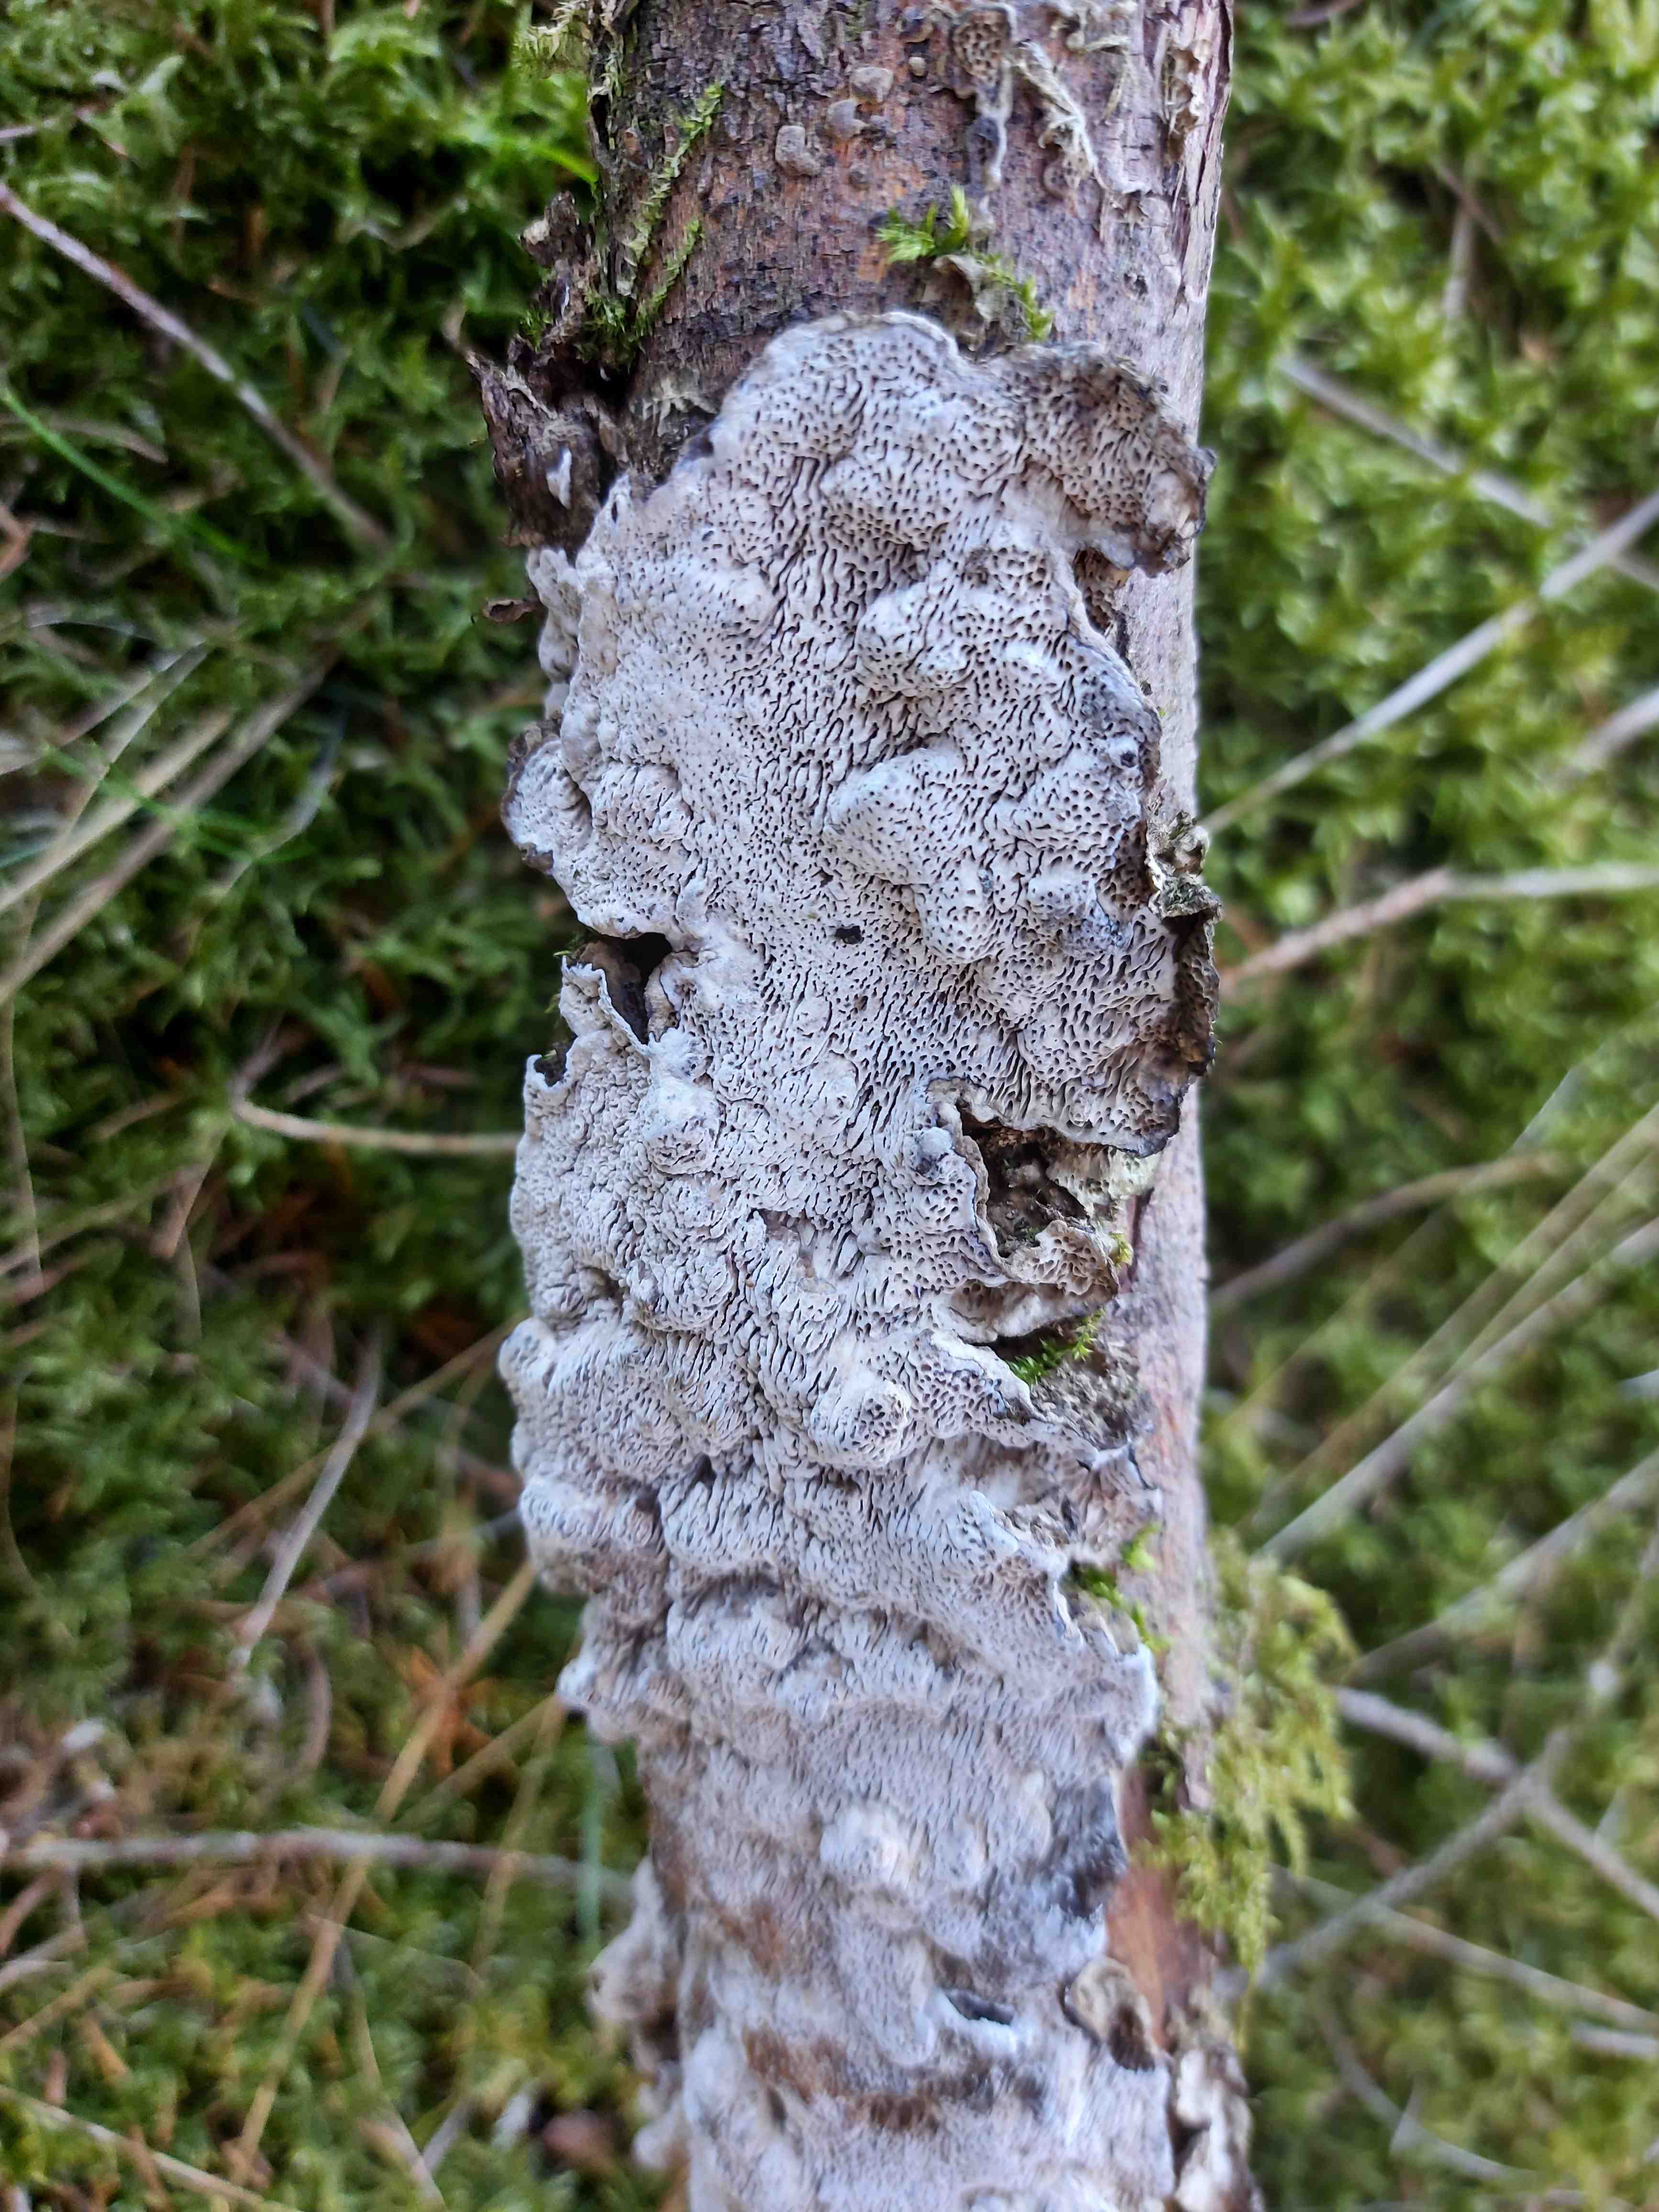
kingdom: Fungi
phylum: Basidiomycota
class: Agaricomycetes
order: Polyporales
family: Polyporaceae
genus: Podofomes
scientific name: Podofomes mollis
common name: blød begporesvamp
